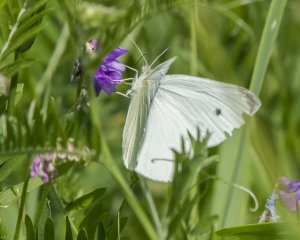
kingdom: Animalia
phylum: Arthropoda
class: Insecta
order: Lepidoptera
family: Pieridae
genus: Pieris
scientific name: Pieris rapae
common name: Cabbage White
